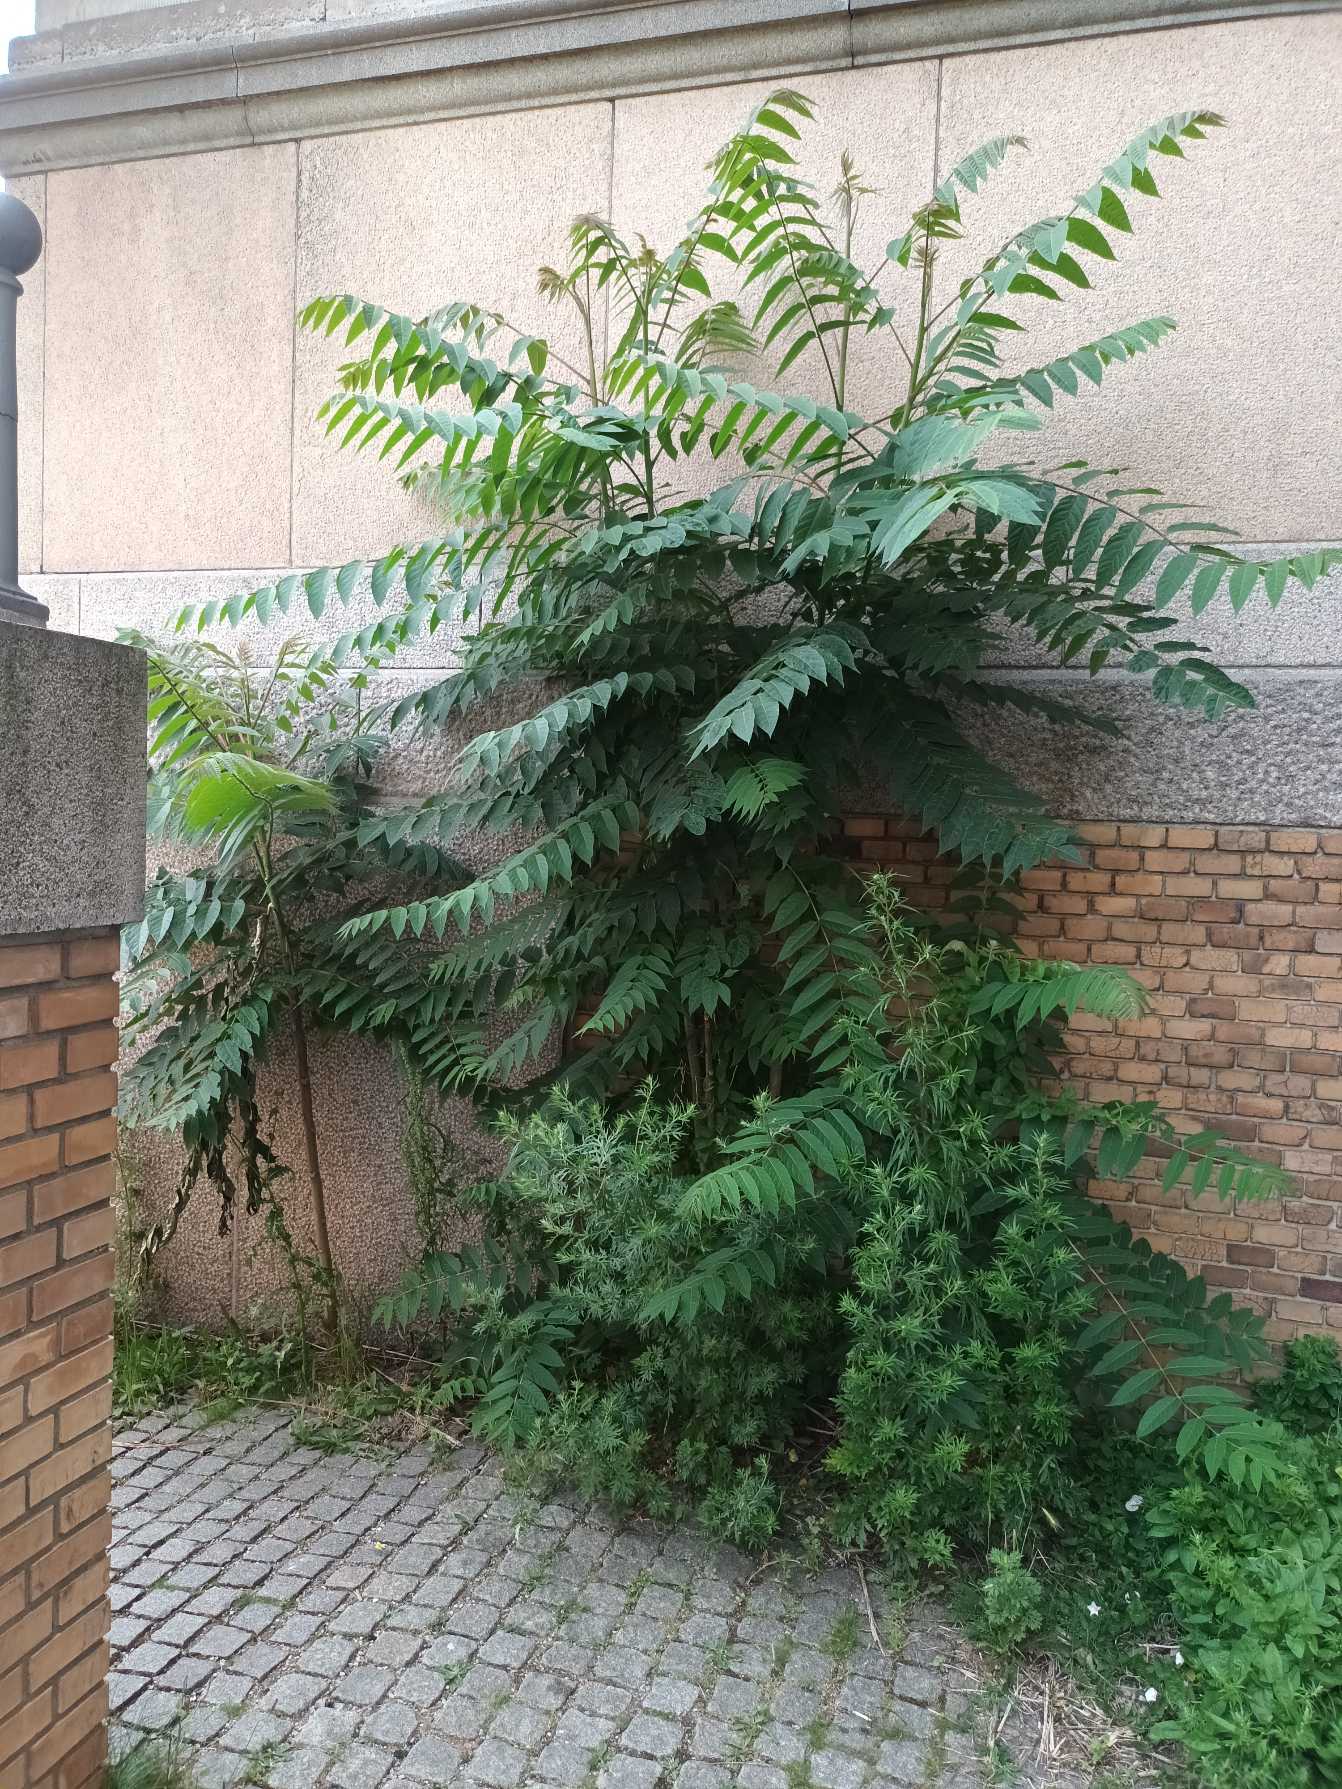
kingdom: Plantae
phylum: Tracheophyta
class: Magnoliopsida
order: Sapindales
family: Simaroubaceae
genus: Ailanthus
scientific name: Ailanthus altissima
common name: Skyrækker
